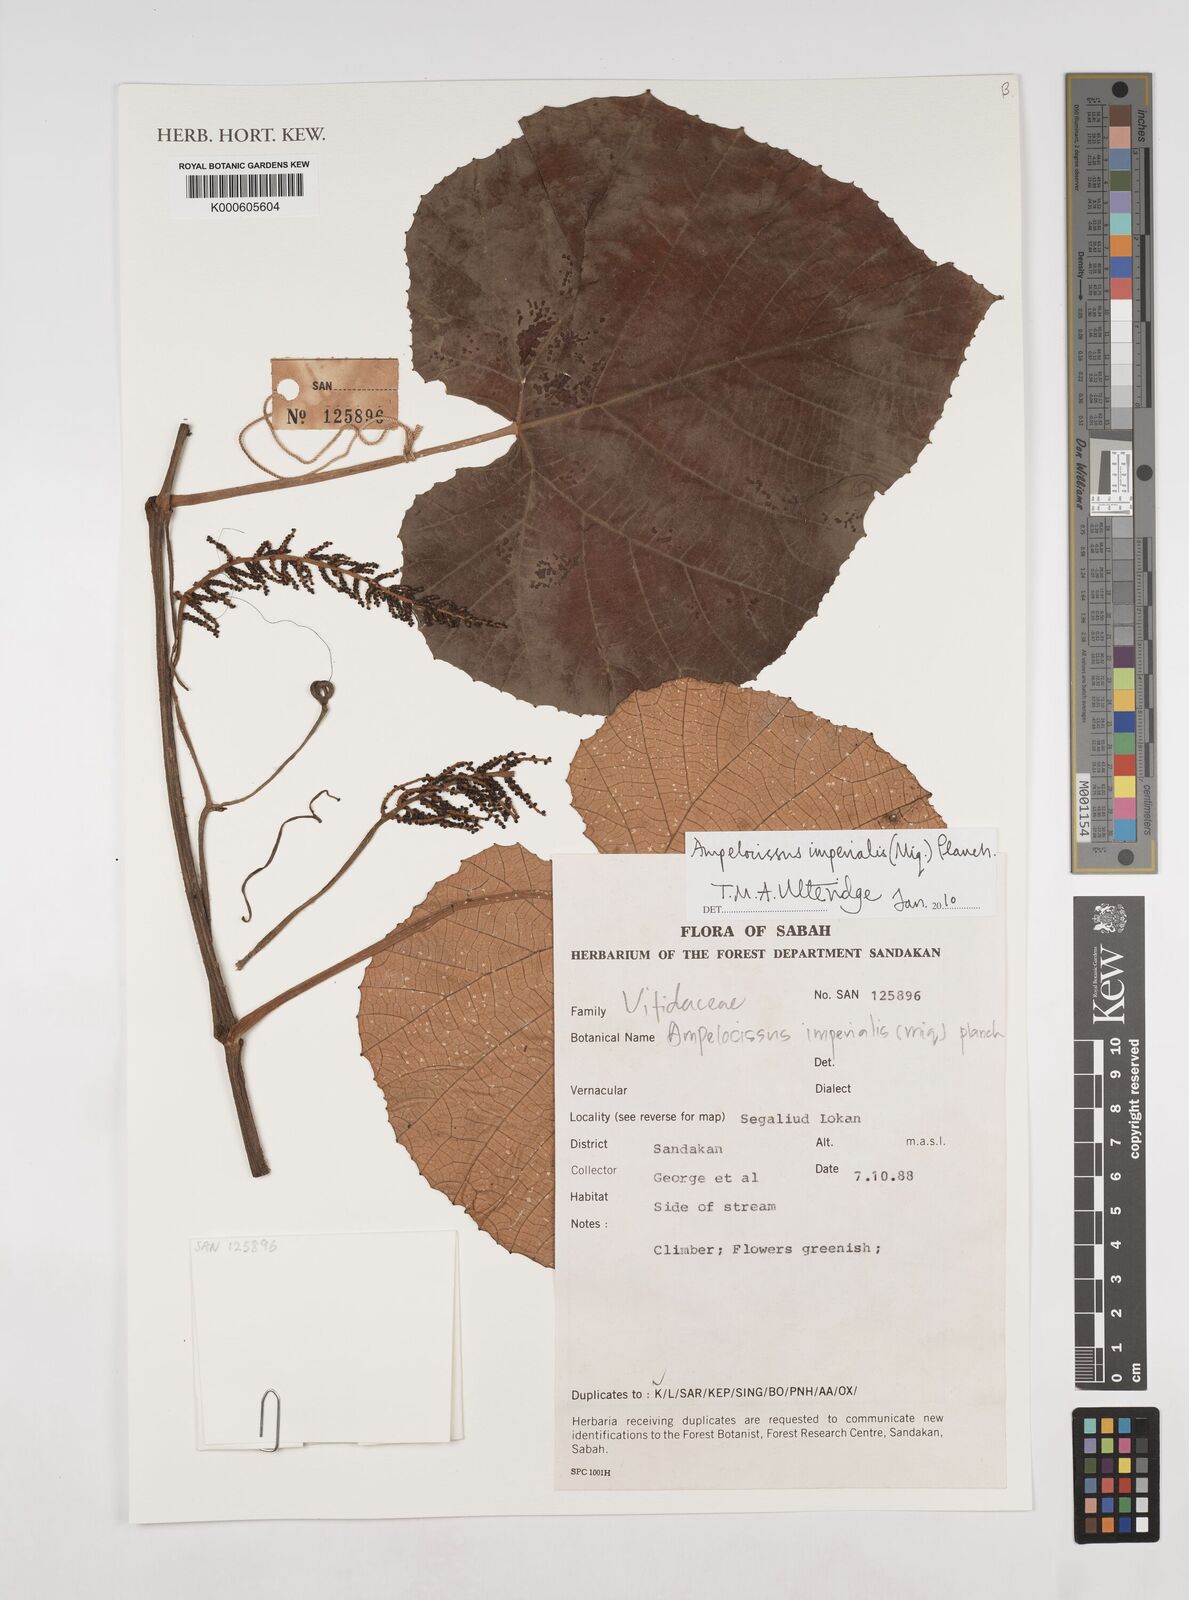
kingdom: Plantae
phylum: Tracheophyta
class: Magnoliopsida
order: Vitales
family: Vitaceae
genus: Ampelocissus
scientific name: Ampelocissus imperialis
